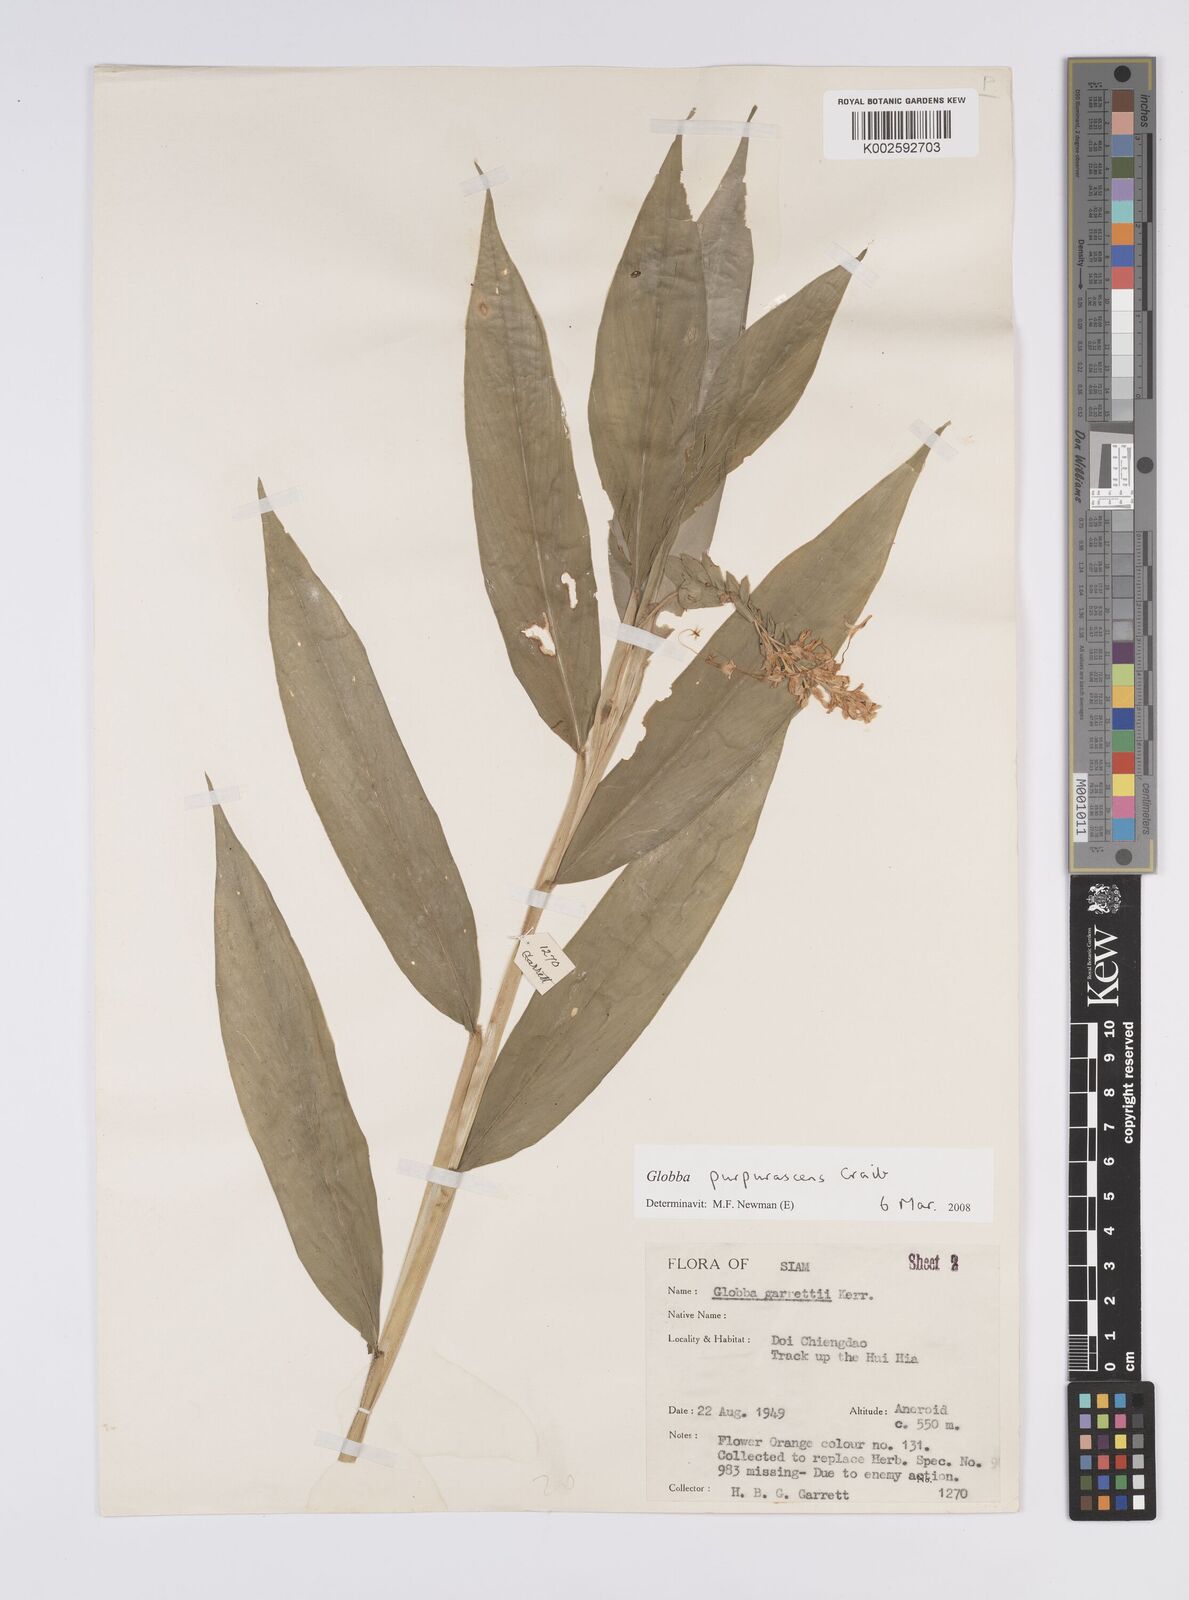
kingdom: Plantae
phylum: Tracheophyta
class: Liliopsida
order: Zingiberales
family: Zingiberaceae
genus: Globba
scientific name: Globba purpurascens
